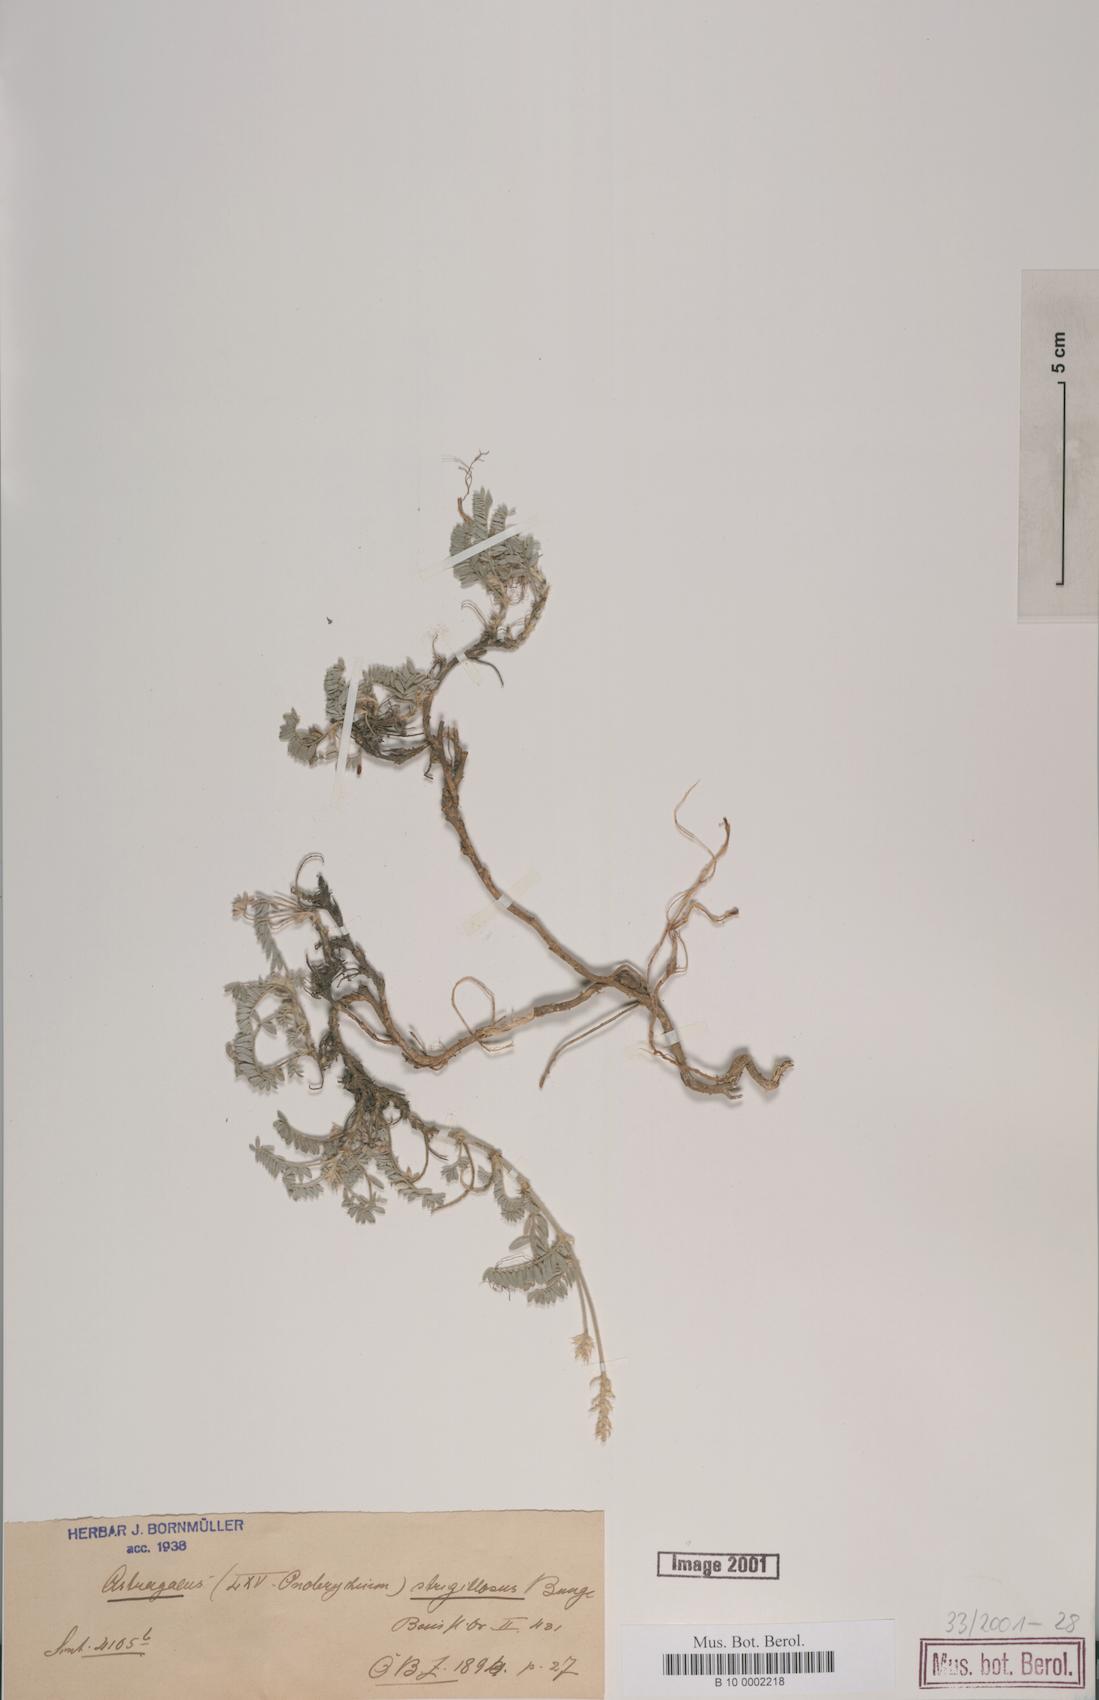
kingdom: Plantae
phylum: Tracheophyta
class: Magnoliopsida
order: Fabales
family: Fabaceae
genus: Astragalus
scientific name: Astragalus strigillosus
